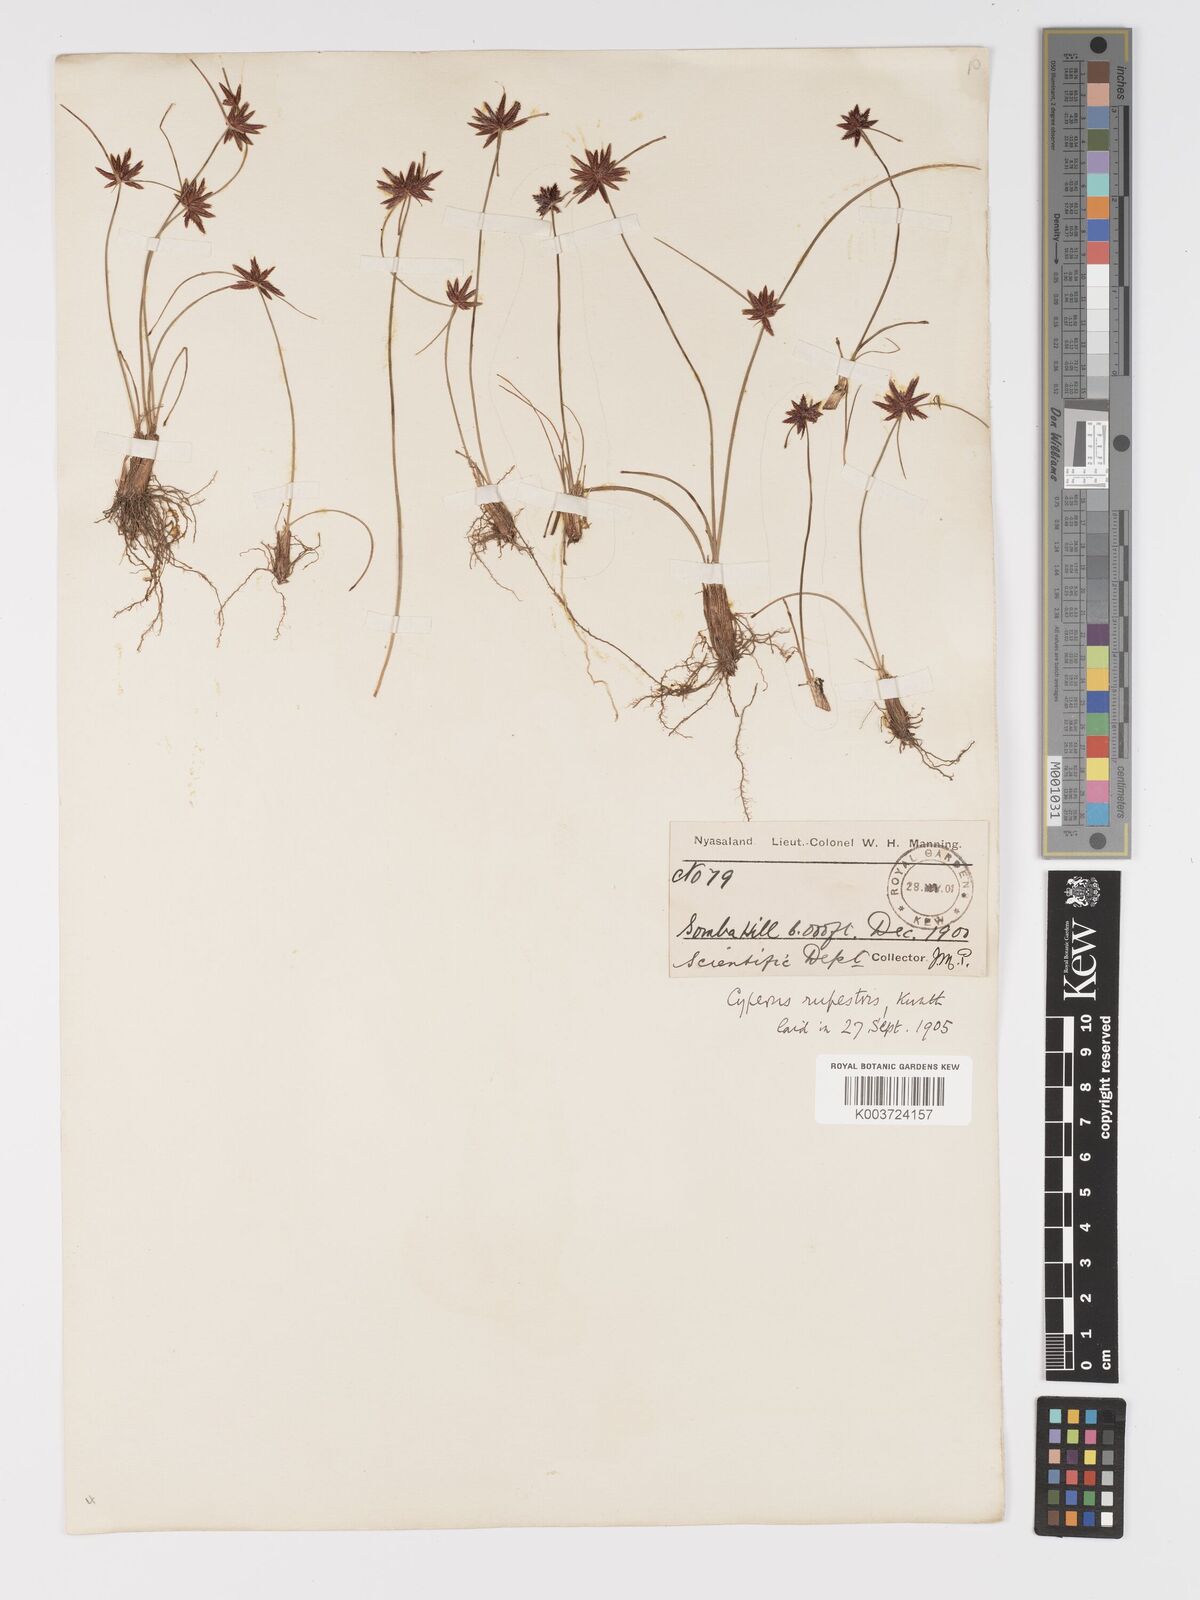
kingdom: Plantae
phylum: Tracheophyta
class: Liliopsida
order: Poales
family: Cyperaceae
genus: Cyperus
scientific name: Cyperus rupestris
